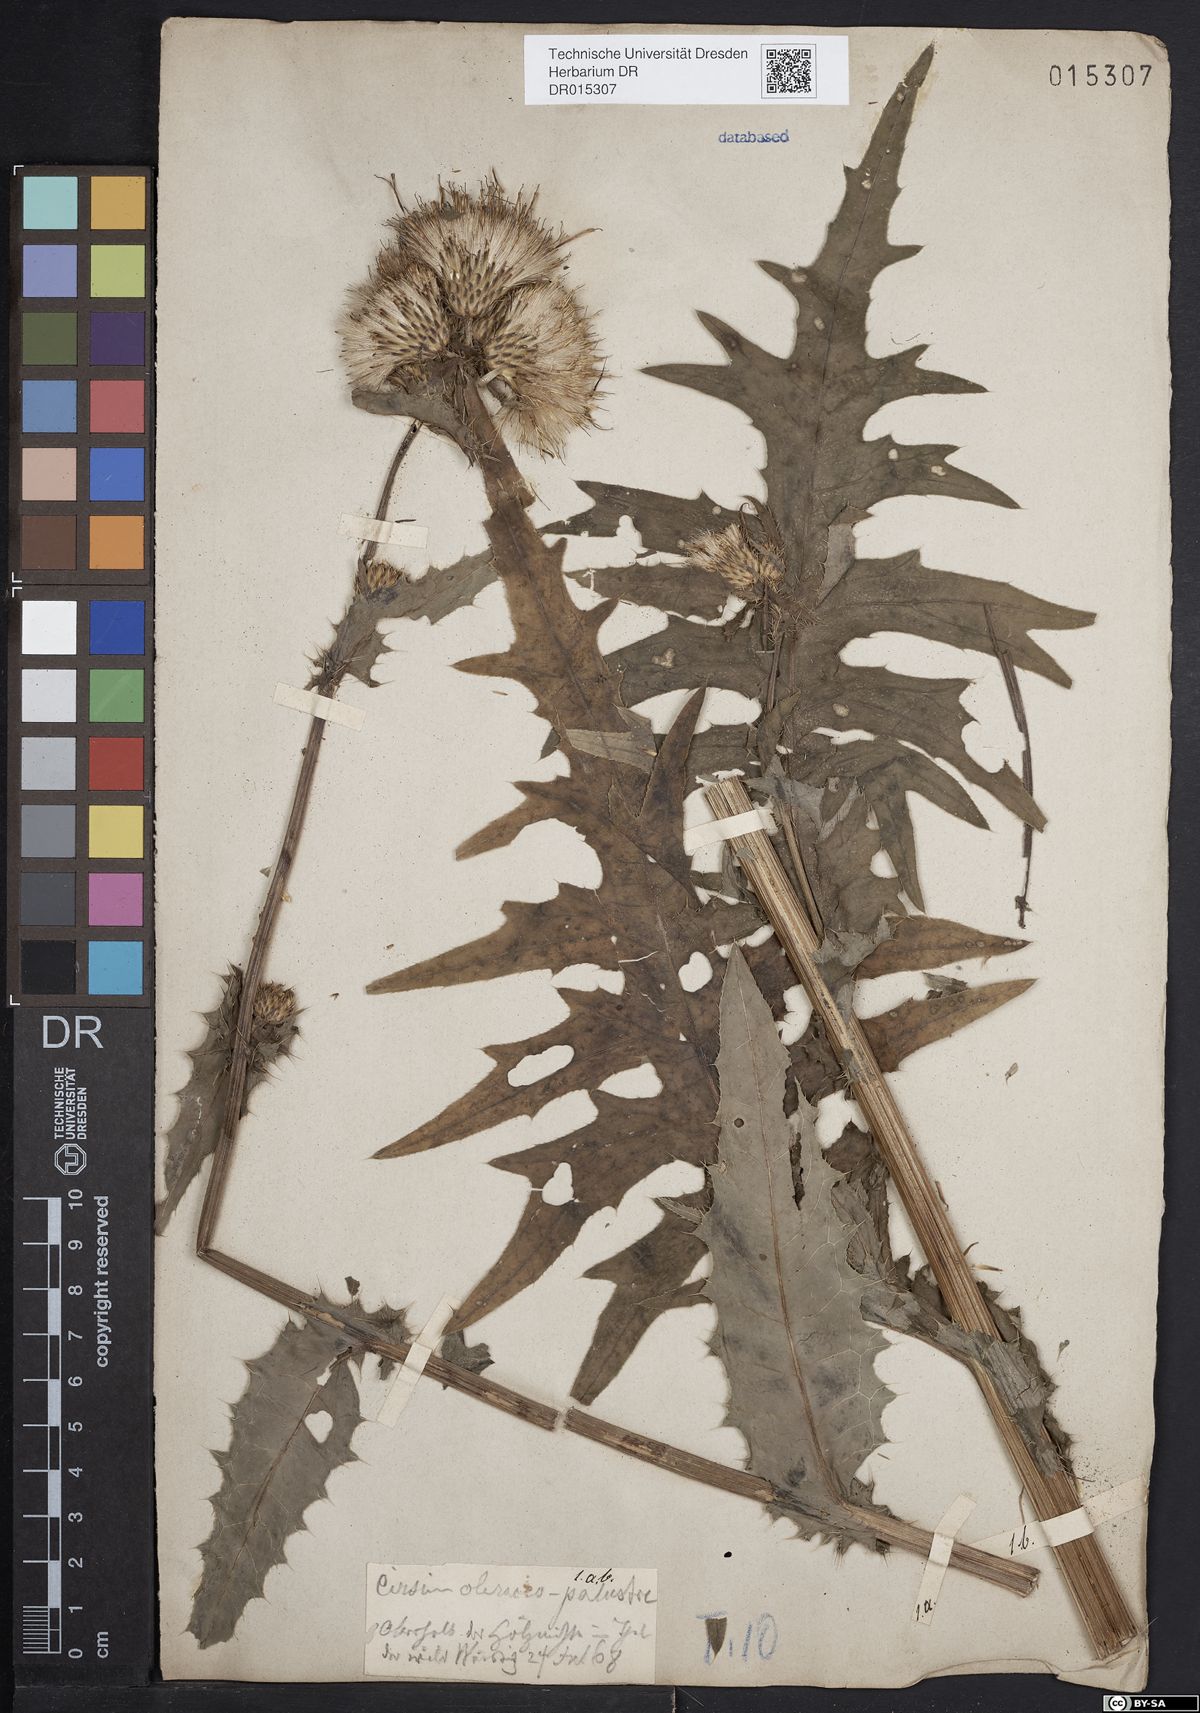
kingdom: Plantae
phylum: Tracheophyta
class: Magnoliopsida
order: Asterales
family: Asteraceae
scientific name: Asteraceae
